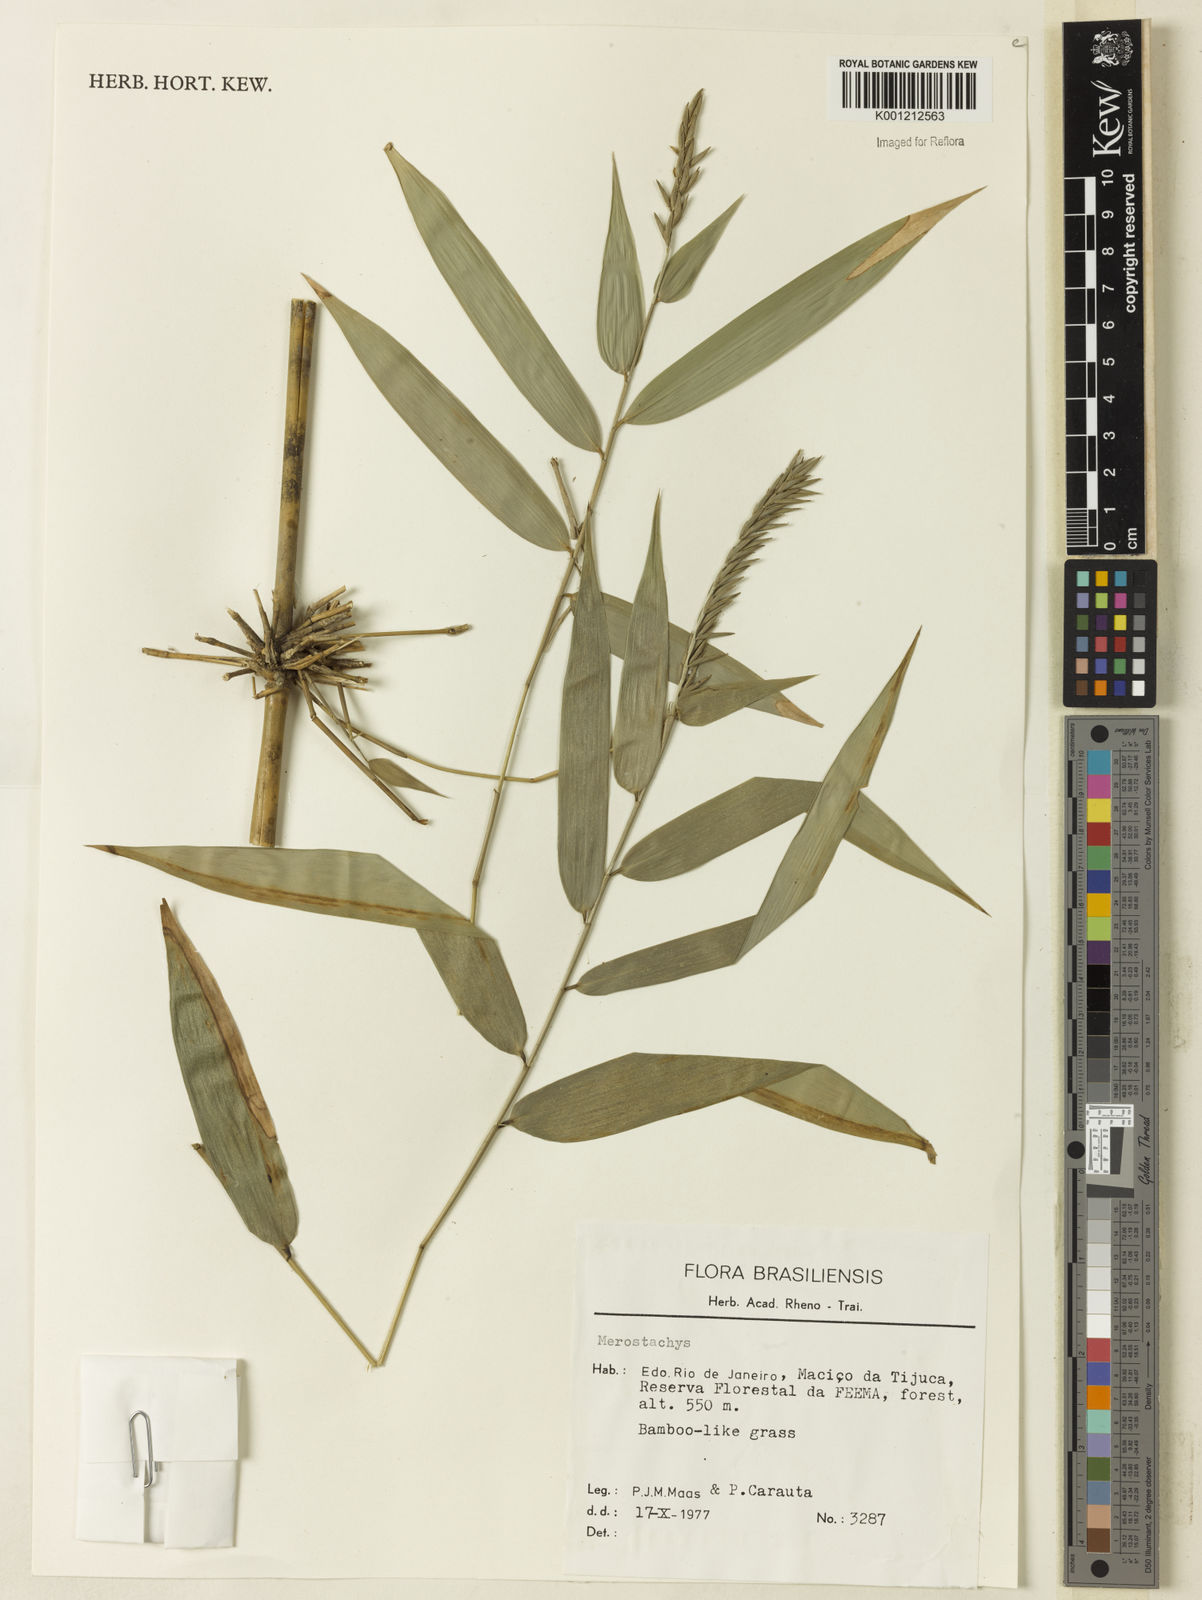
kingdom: Plantae
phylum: Tracheophyta
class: Liliopsida
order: Poales
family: Poaceae
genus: Merostachys
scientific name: Merostachys
